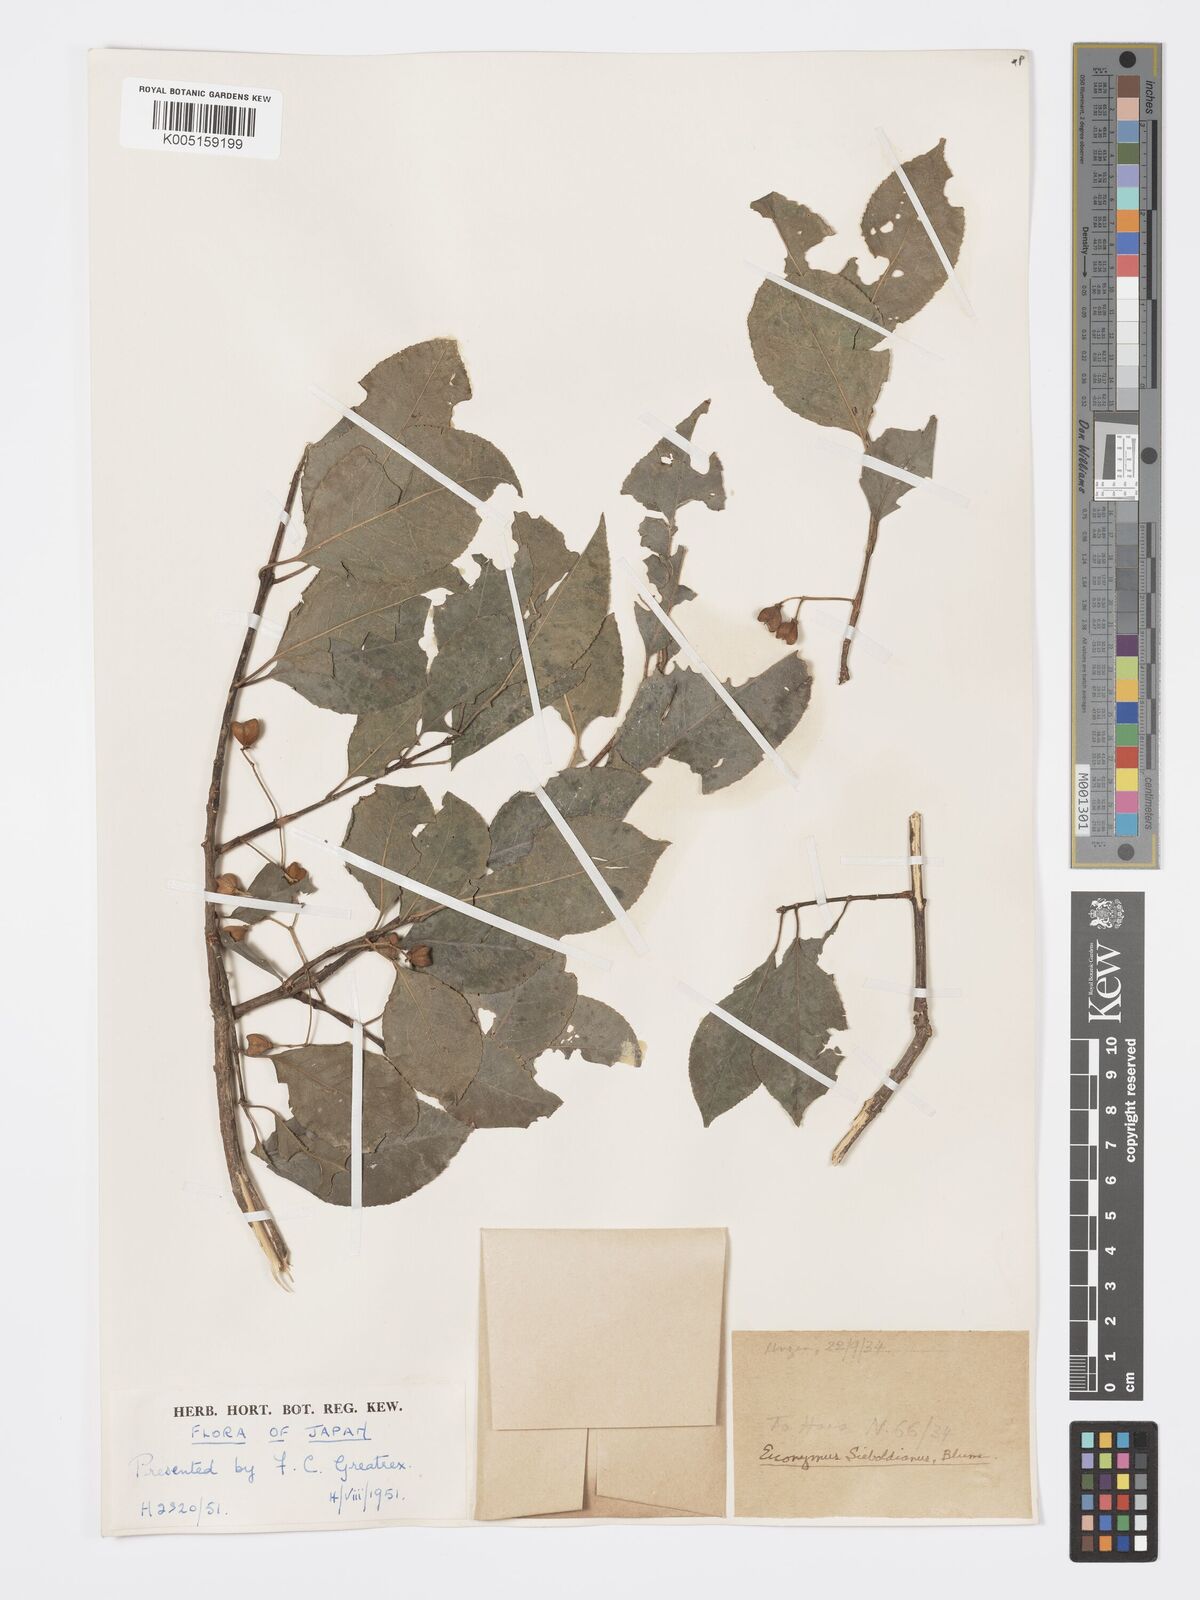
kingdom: Plantae
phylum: Tracheophyta
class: Magnoliopsida
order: Celastrales
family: Celastraceae
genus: Euonymus
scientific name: Euonymus hamiltonianus
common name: Hamilton's spindletree
